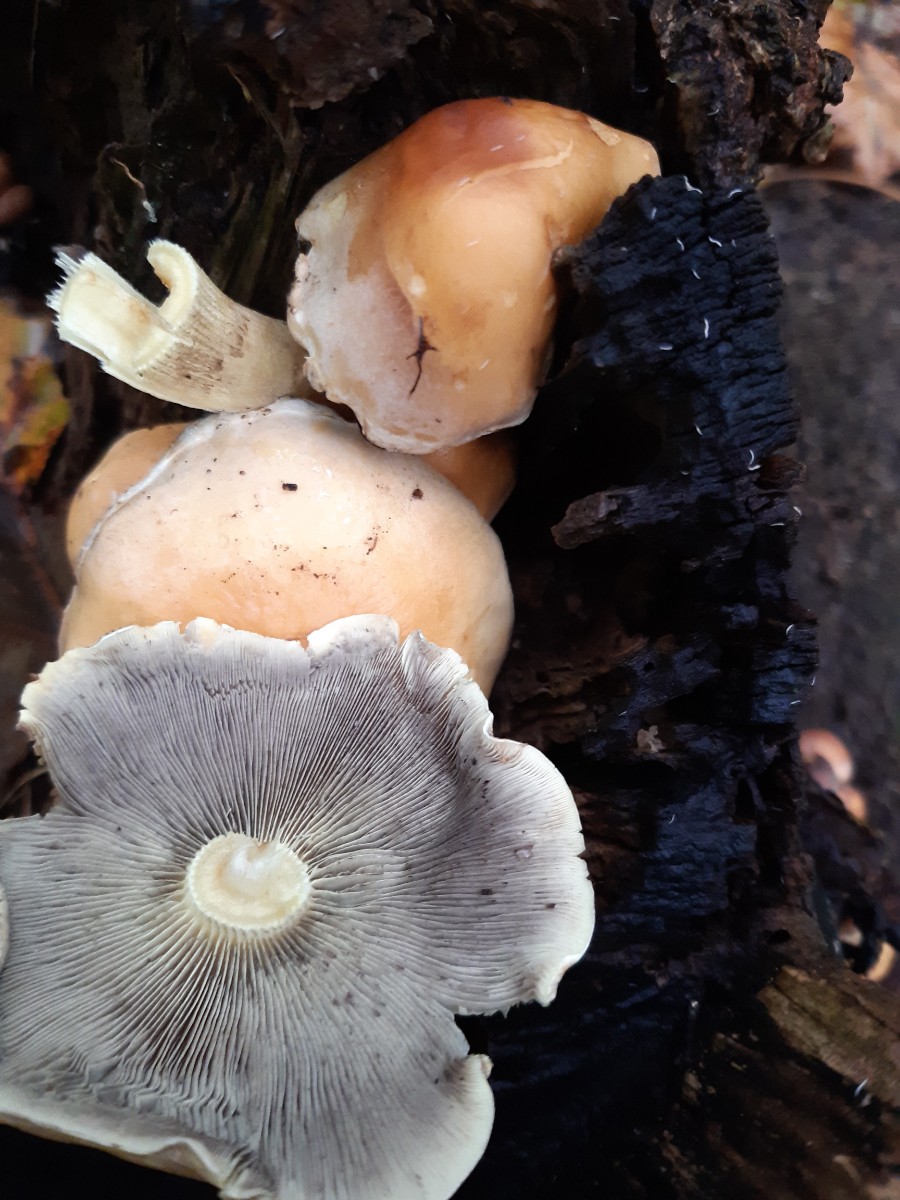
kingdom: Fungi
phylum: Basidiomycota
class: Agaricomycetes
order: Agaricales
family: Strophariaceae
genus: Hypholoma
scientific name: Hypholoma
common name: svovlhat
